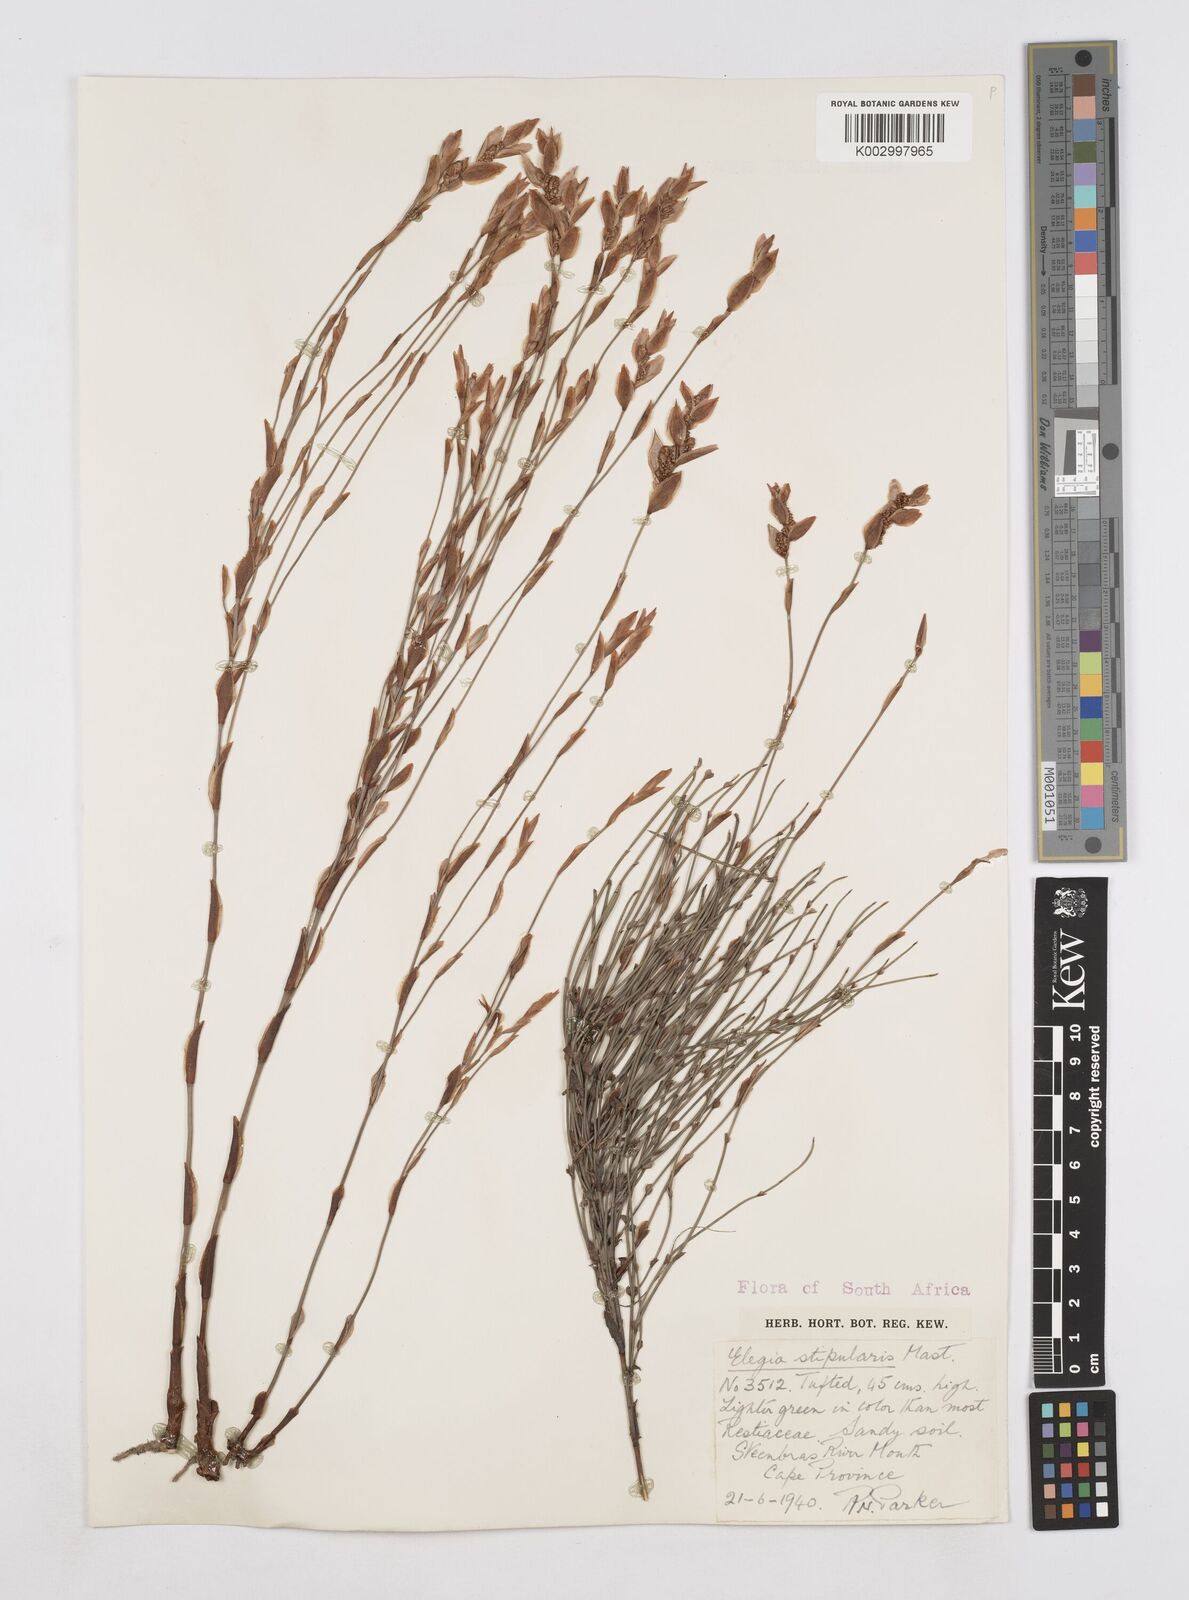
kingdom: Plantae
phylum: Tracheophyta
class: Liliopsida
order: Poales
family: Restionaceae
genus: Elegia
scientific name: Elegia stipularis
